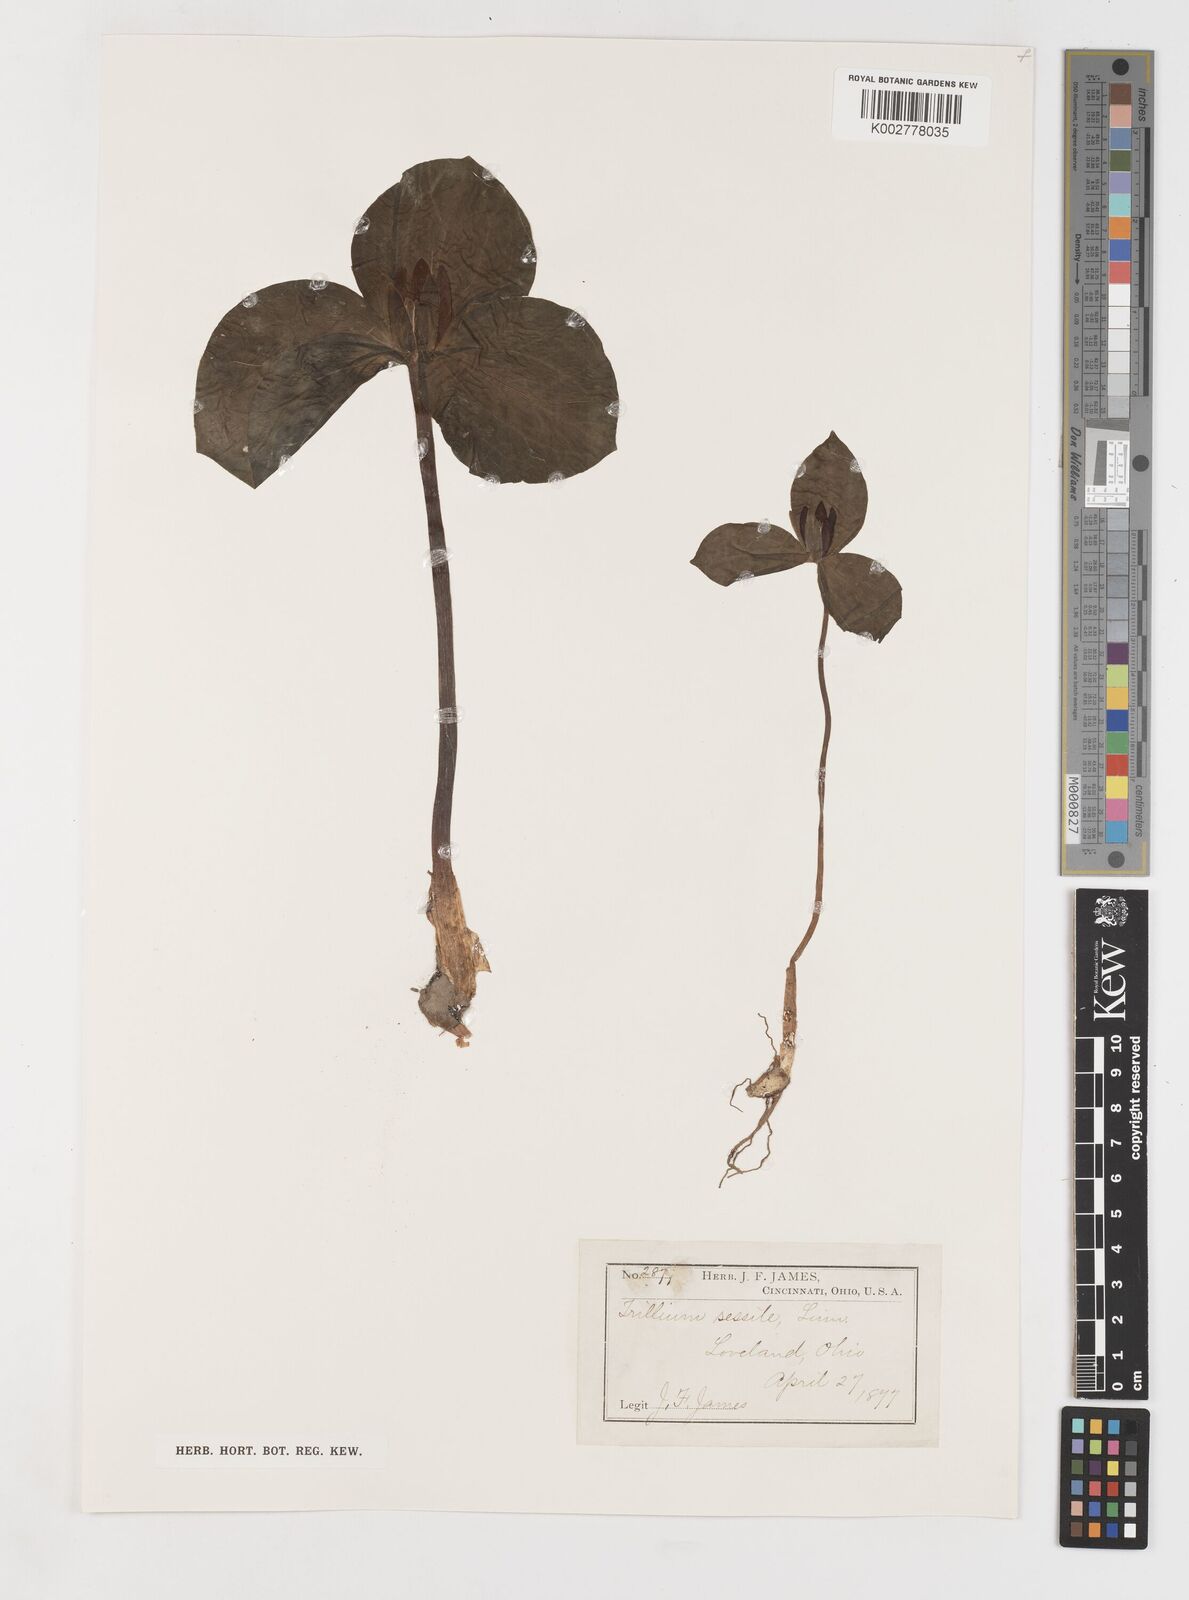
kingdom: Plantae
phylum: Tracheophyta
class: Liliopsida
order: Liliales
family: Melanthiaceae
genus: Trillium
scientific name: Trillium sessile
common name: Sessile trillium
